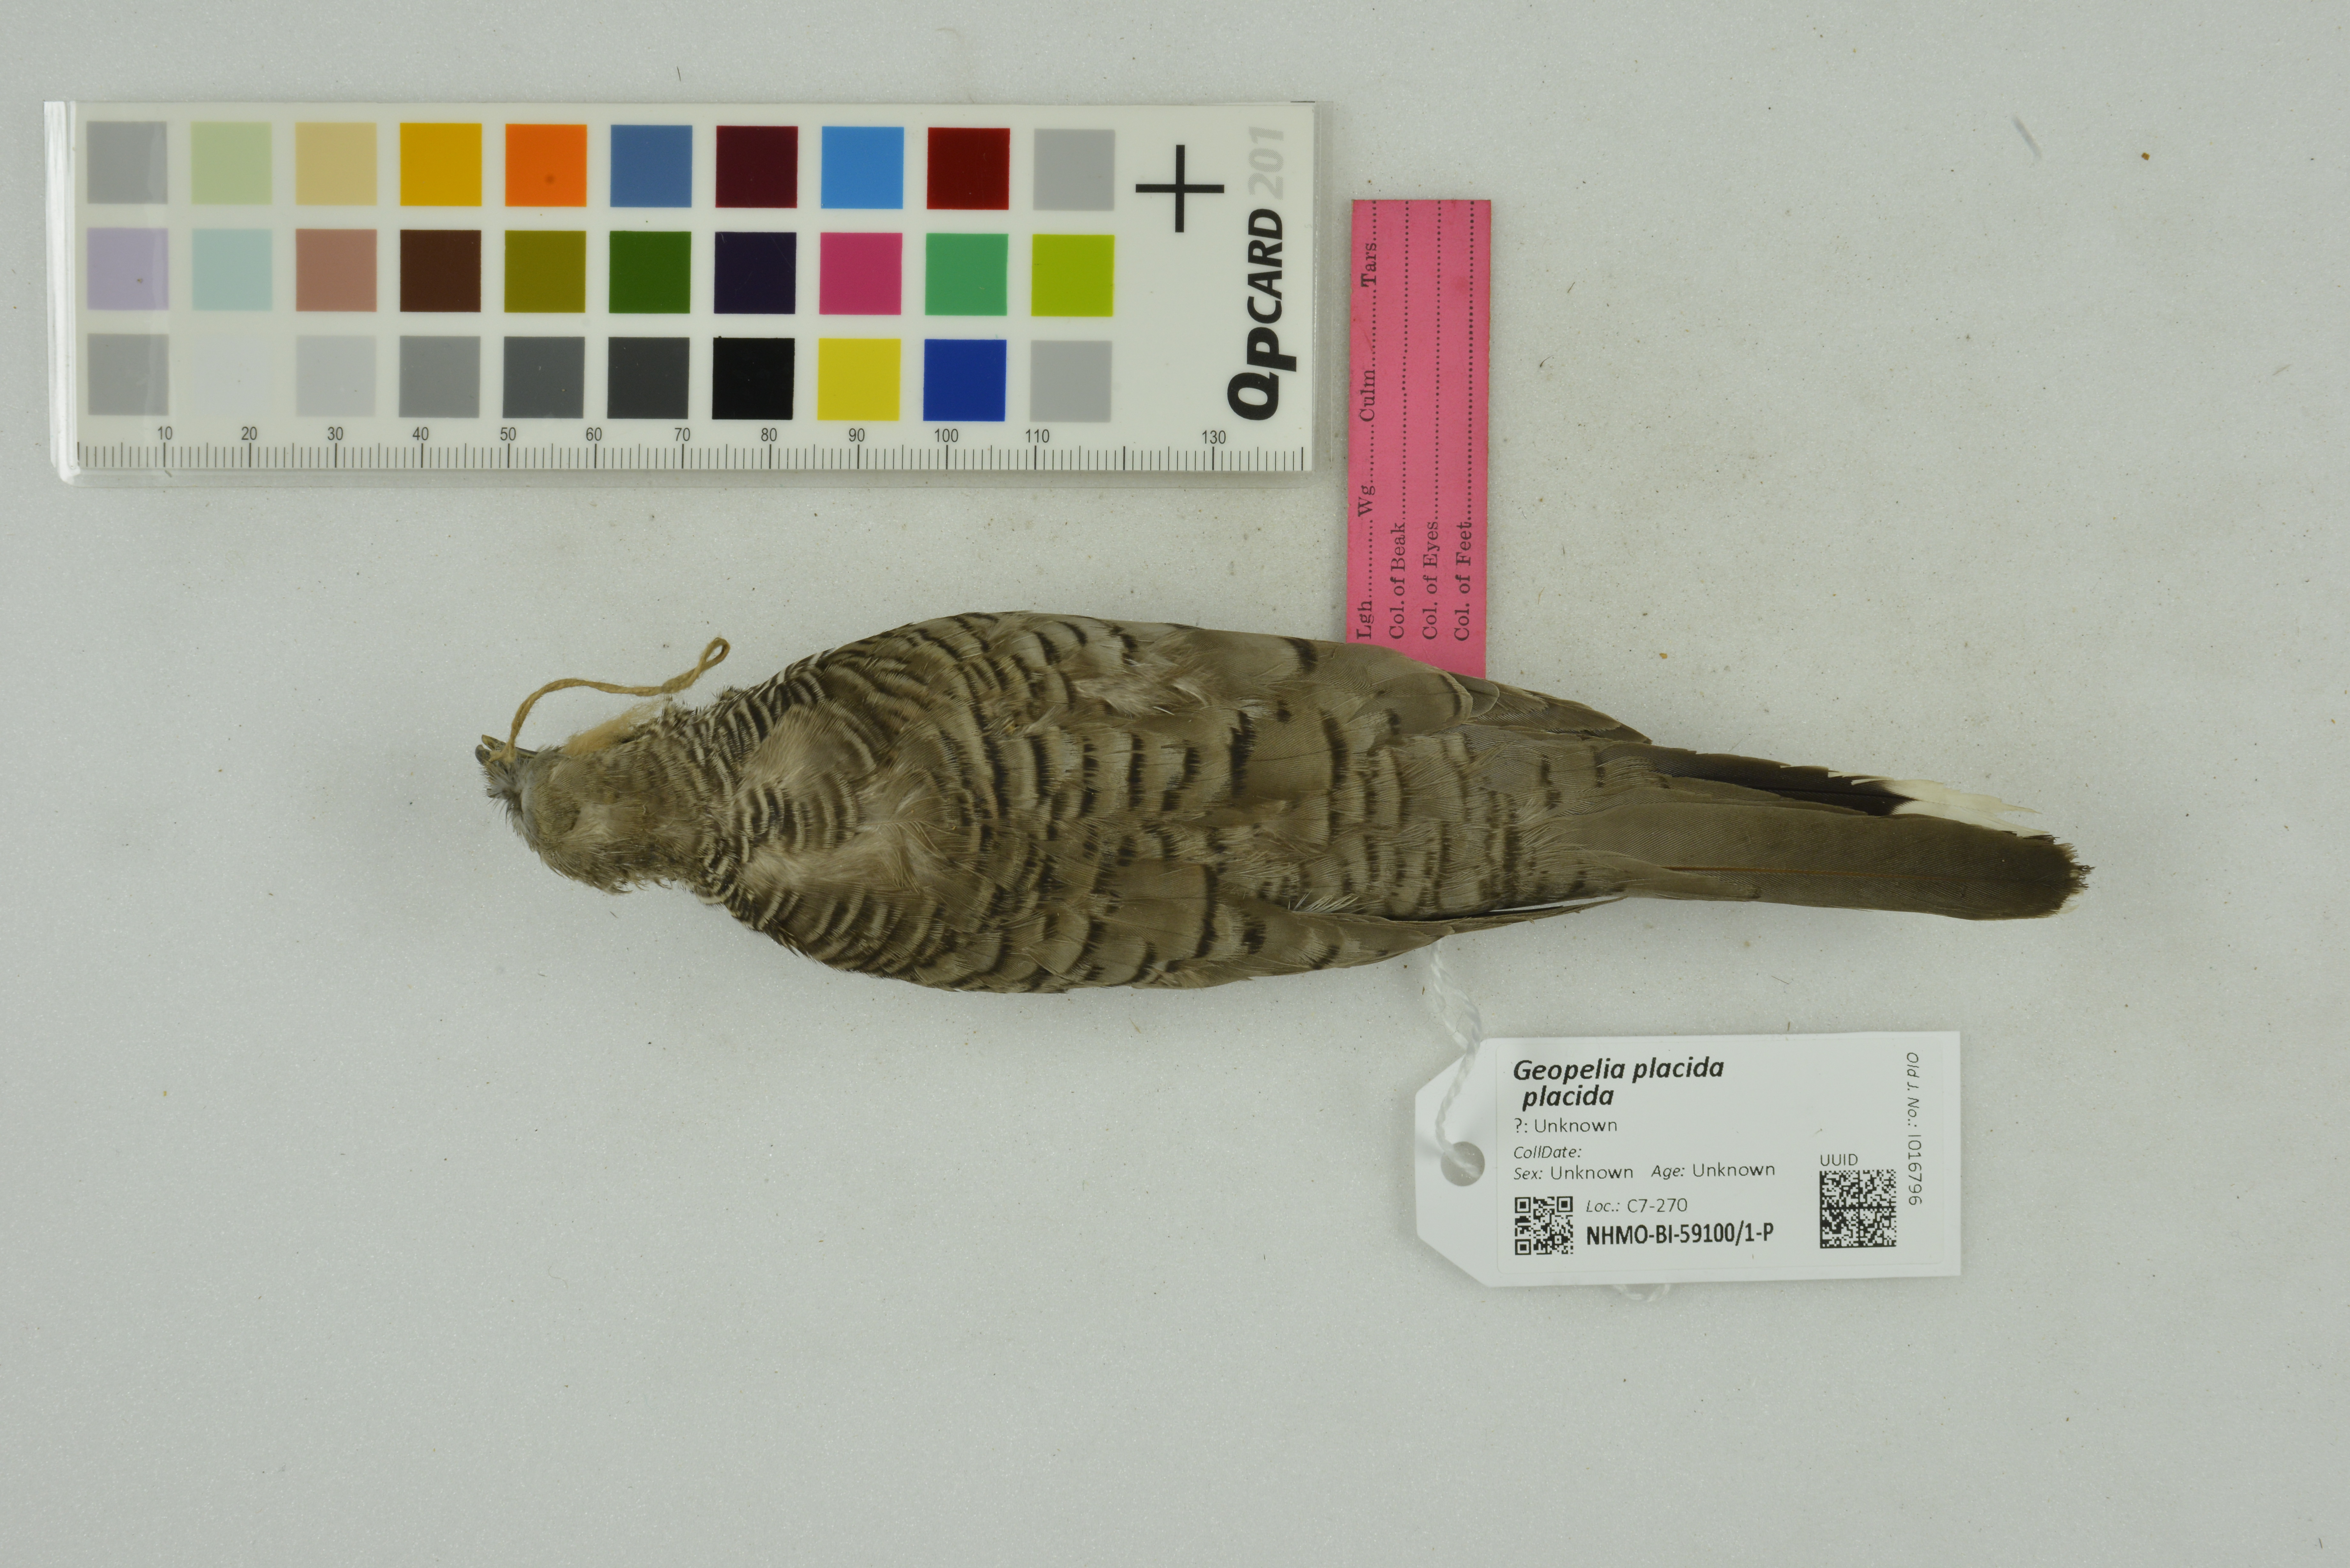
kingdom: Animalia
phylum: Chordata
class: Aves
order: Columbiformes
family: Columbidae
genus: Geopelia
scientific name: Geopelia placida
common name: Peaceful dove
